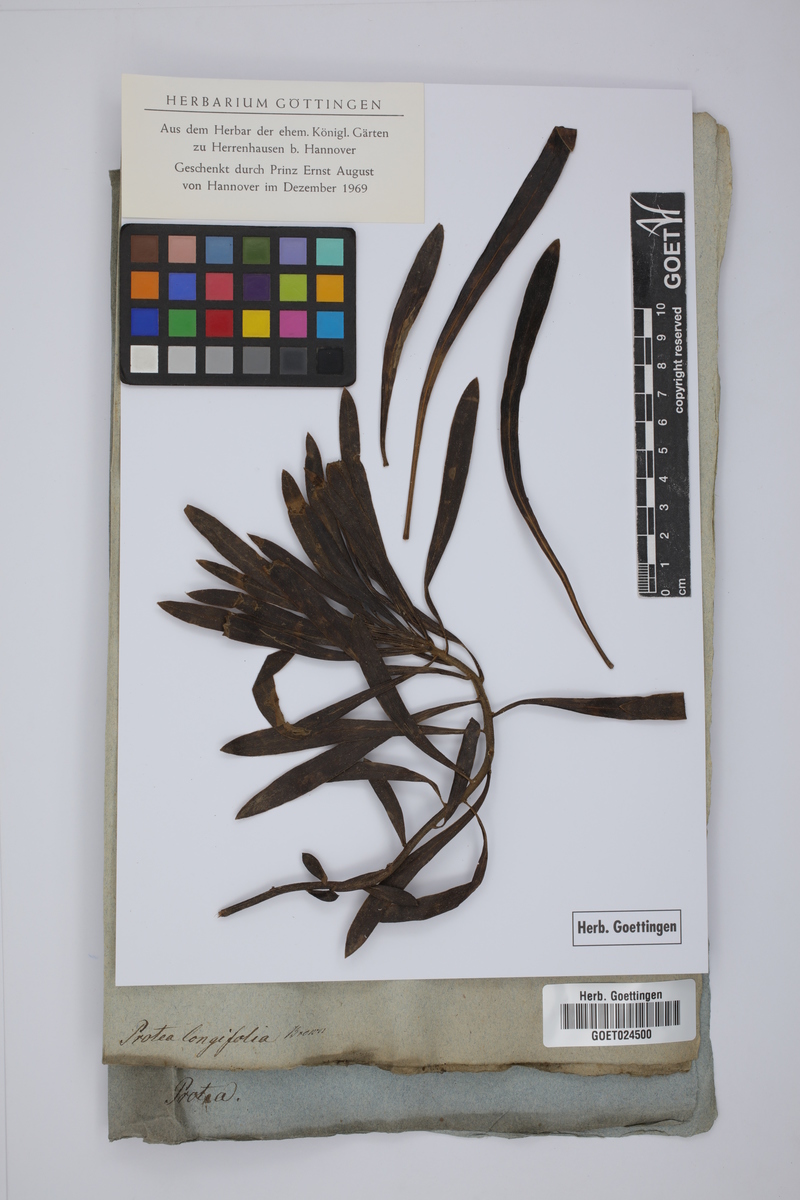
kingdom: Plantae
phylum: Tracheophyta
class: Magnoliopsida
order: Proteales
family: Proteaceae
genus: Protea
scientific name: Protea longifolia
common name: Long-leaf sugarbush
